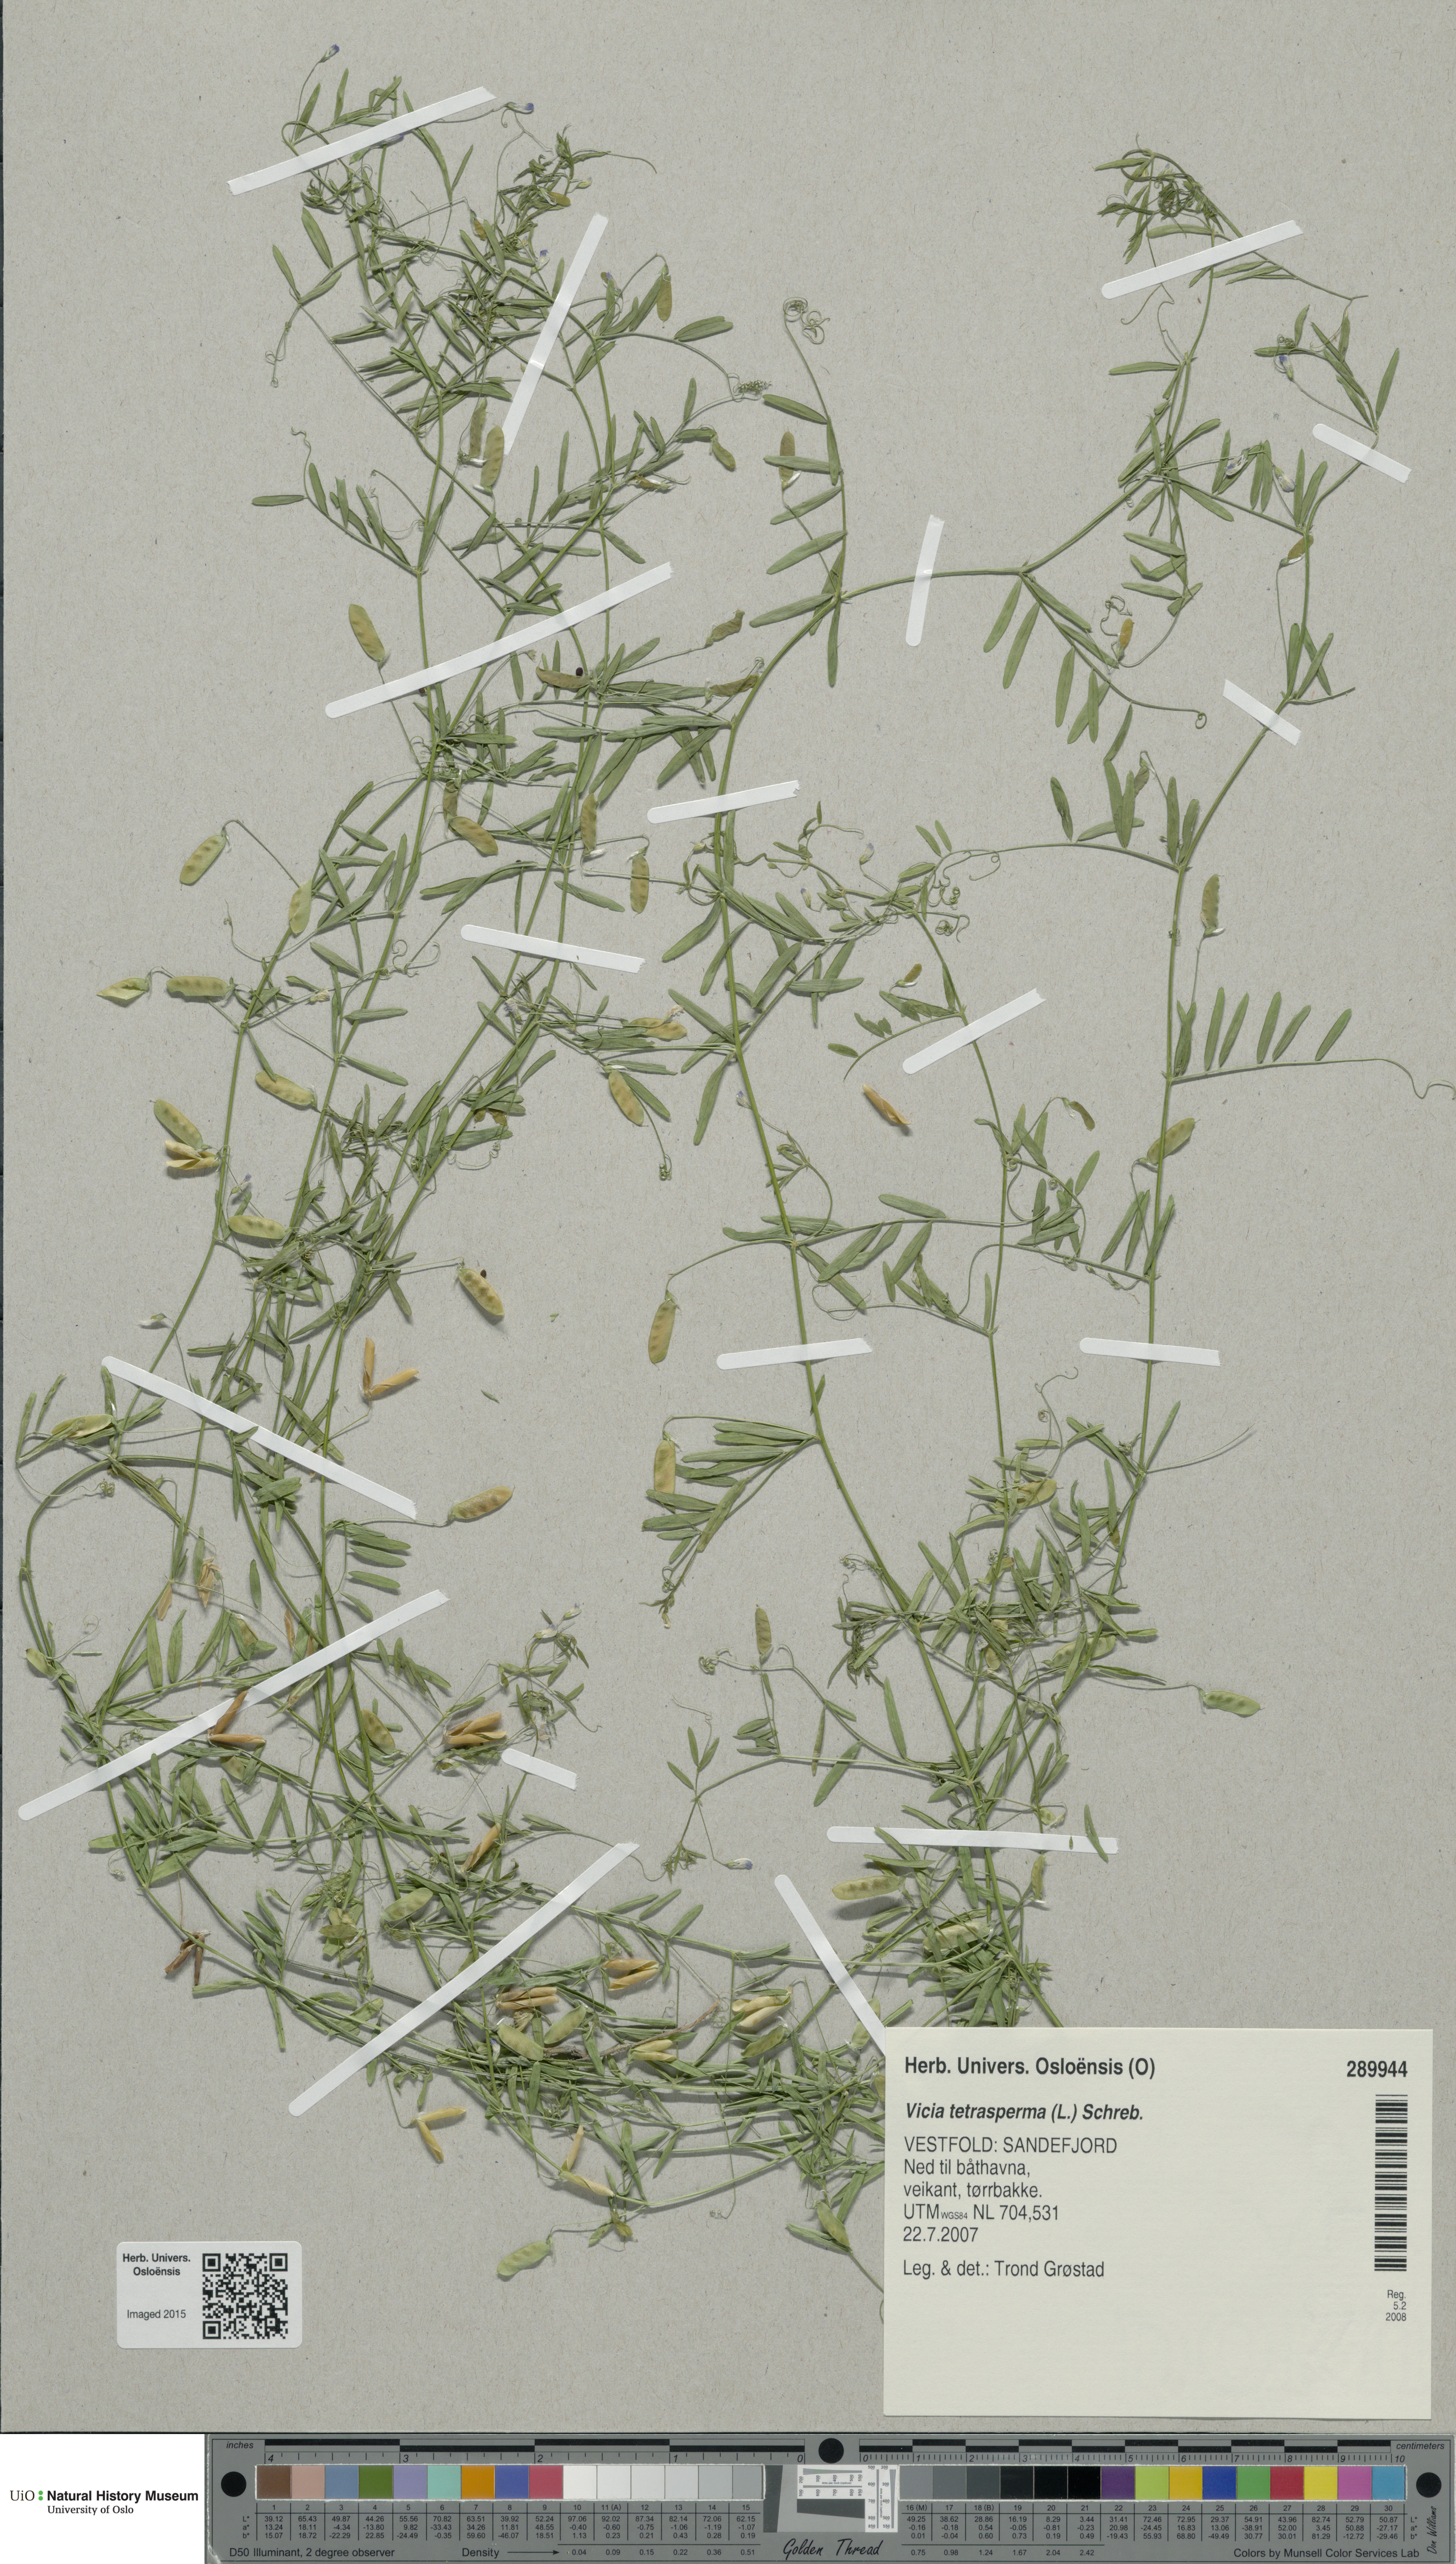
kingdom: Plantae
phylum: Tracheophyta
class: Magnoliopsida
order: Fabales
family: Fabaceae
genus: Vicia
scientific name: Vicia tetrasperma
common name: Smooth tare
